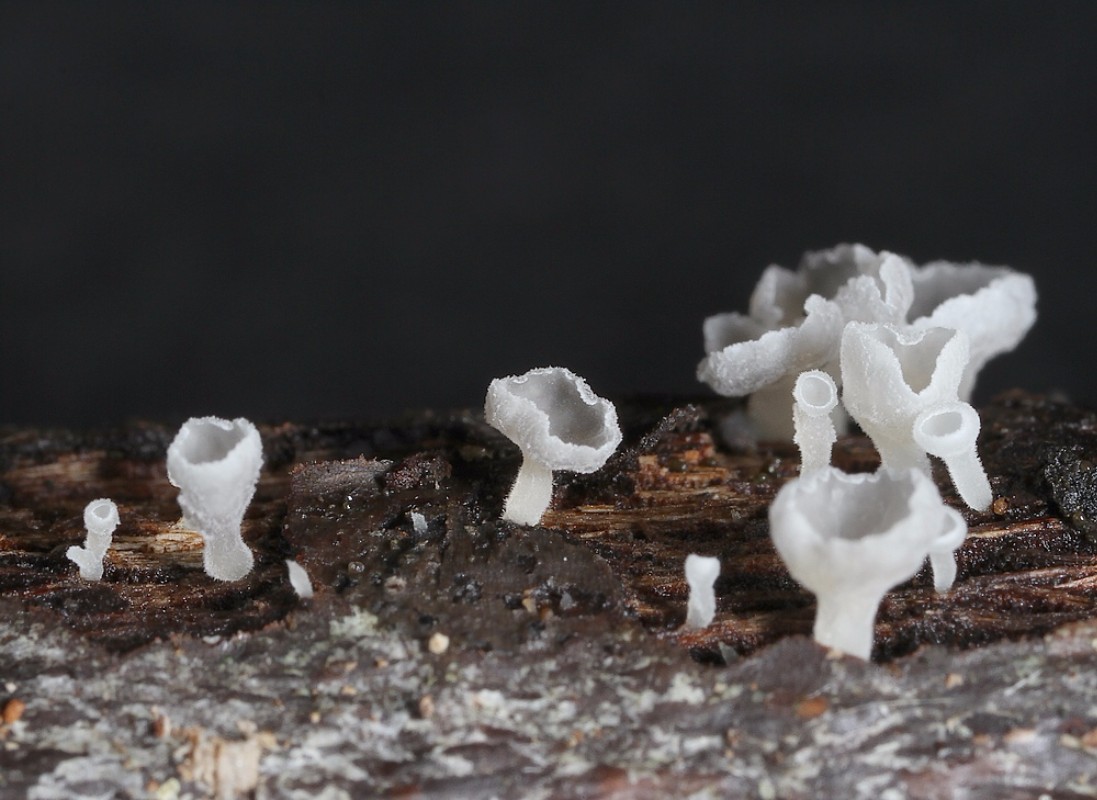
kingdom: Fungi
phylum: Basidiomycota
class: Agaricomycetes
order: Agaricales
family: Marasmiaceae
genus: Calyptella
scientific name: Calyptella cernua
